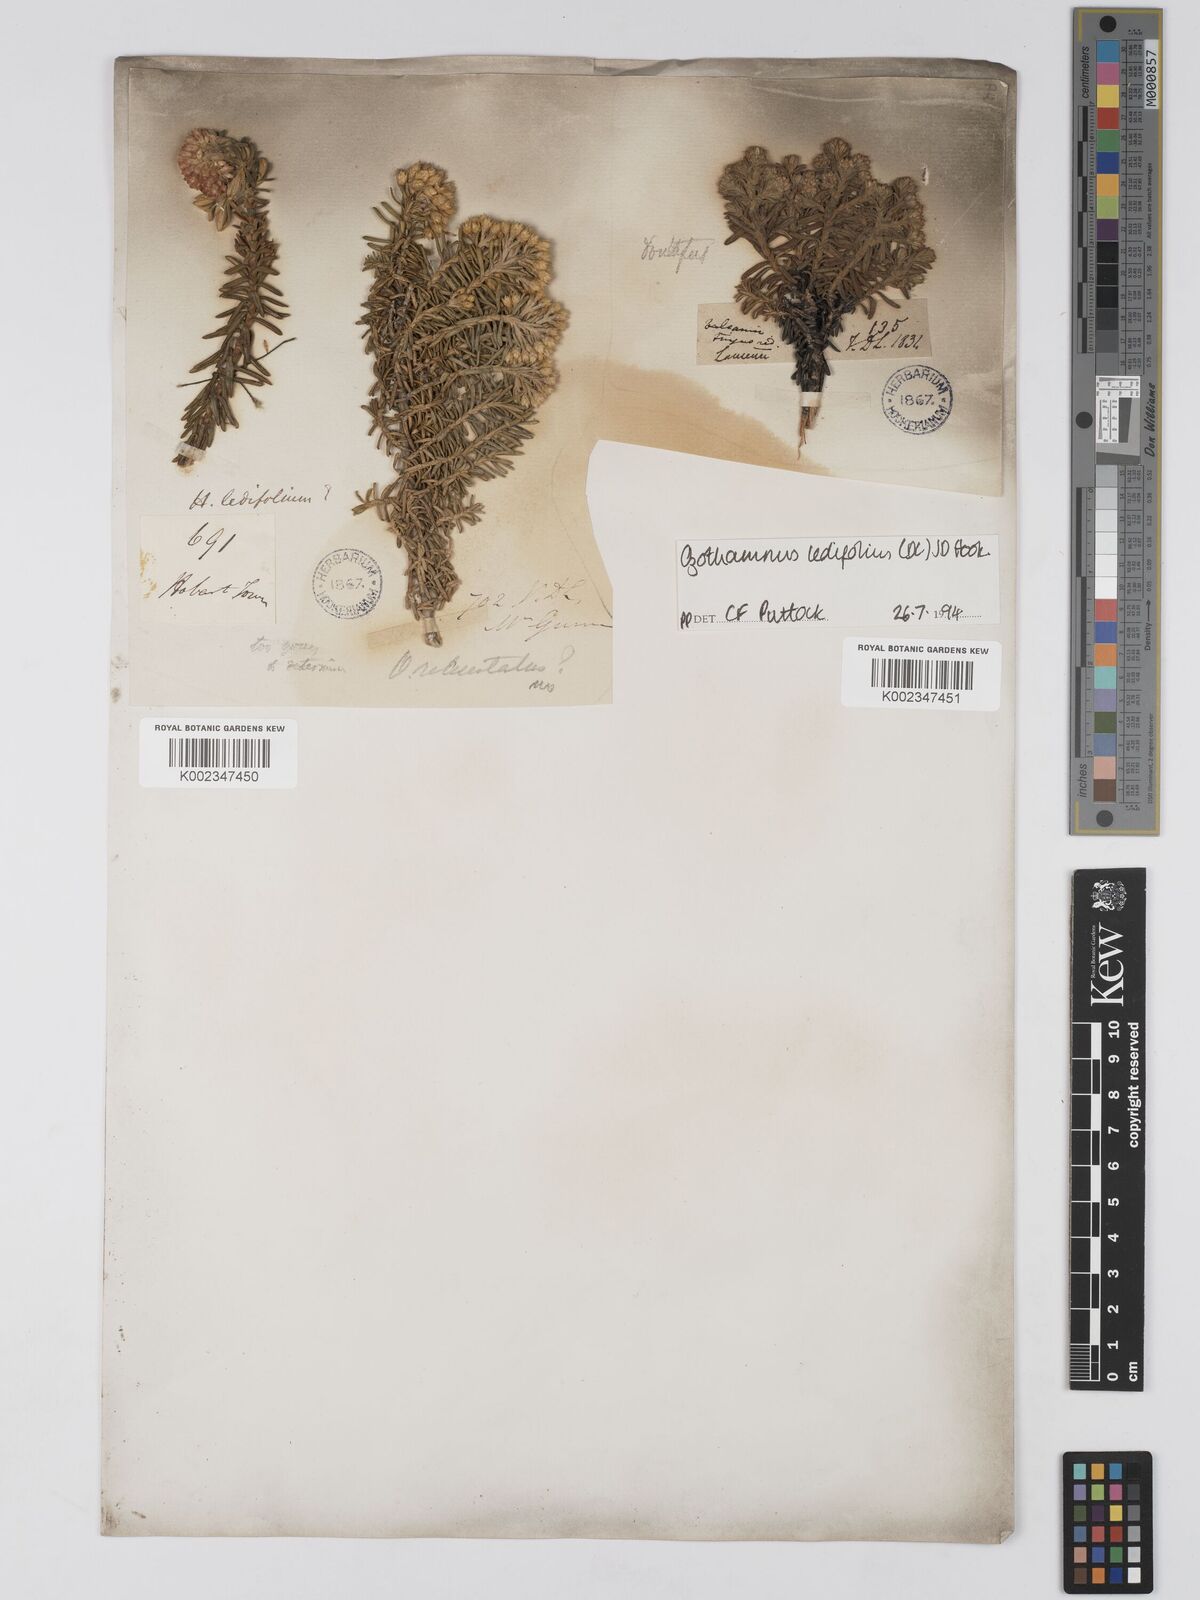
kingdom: Plantae
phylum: Tracheophyta
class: Magnoliopsida
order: Asterales
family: Asteraceae
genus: Ozothamnus
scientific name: Ozothamnus ledifolius
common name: Kerosene-weed
